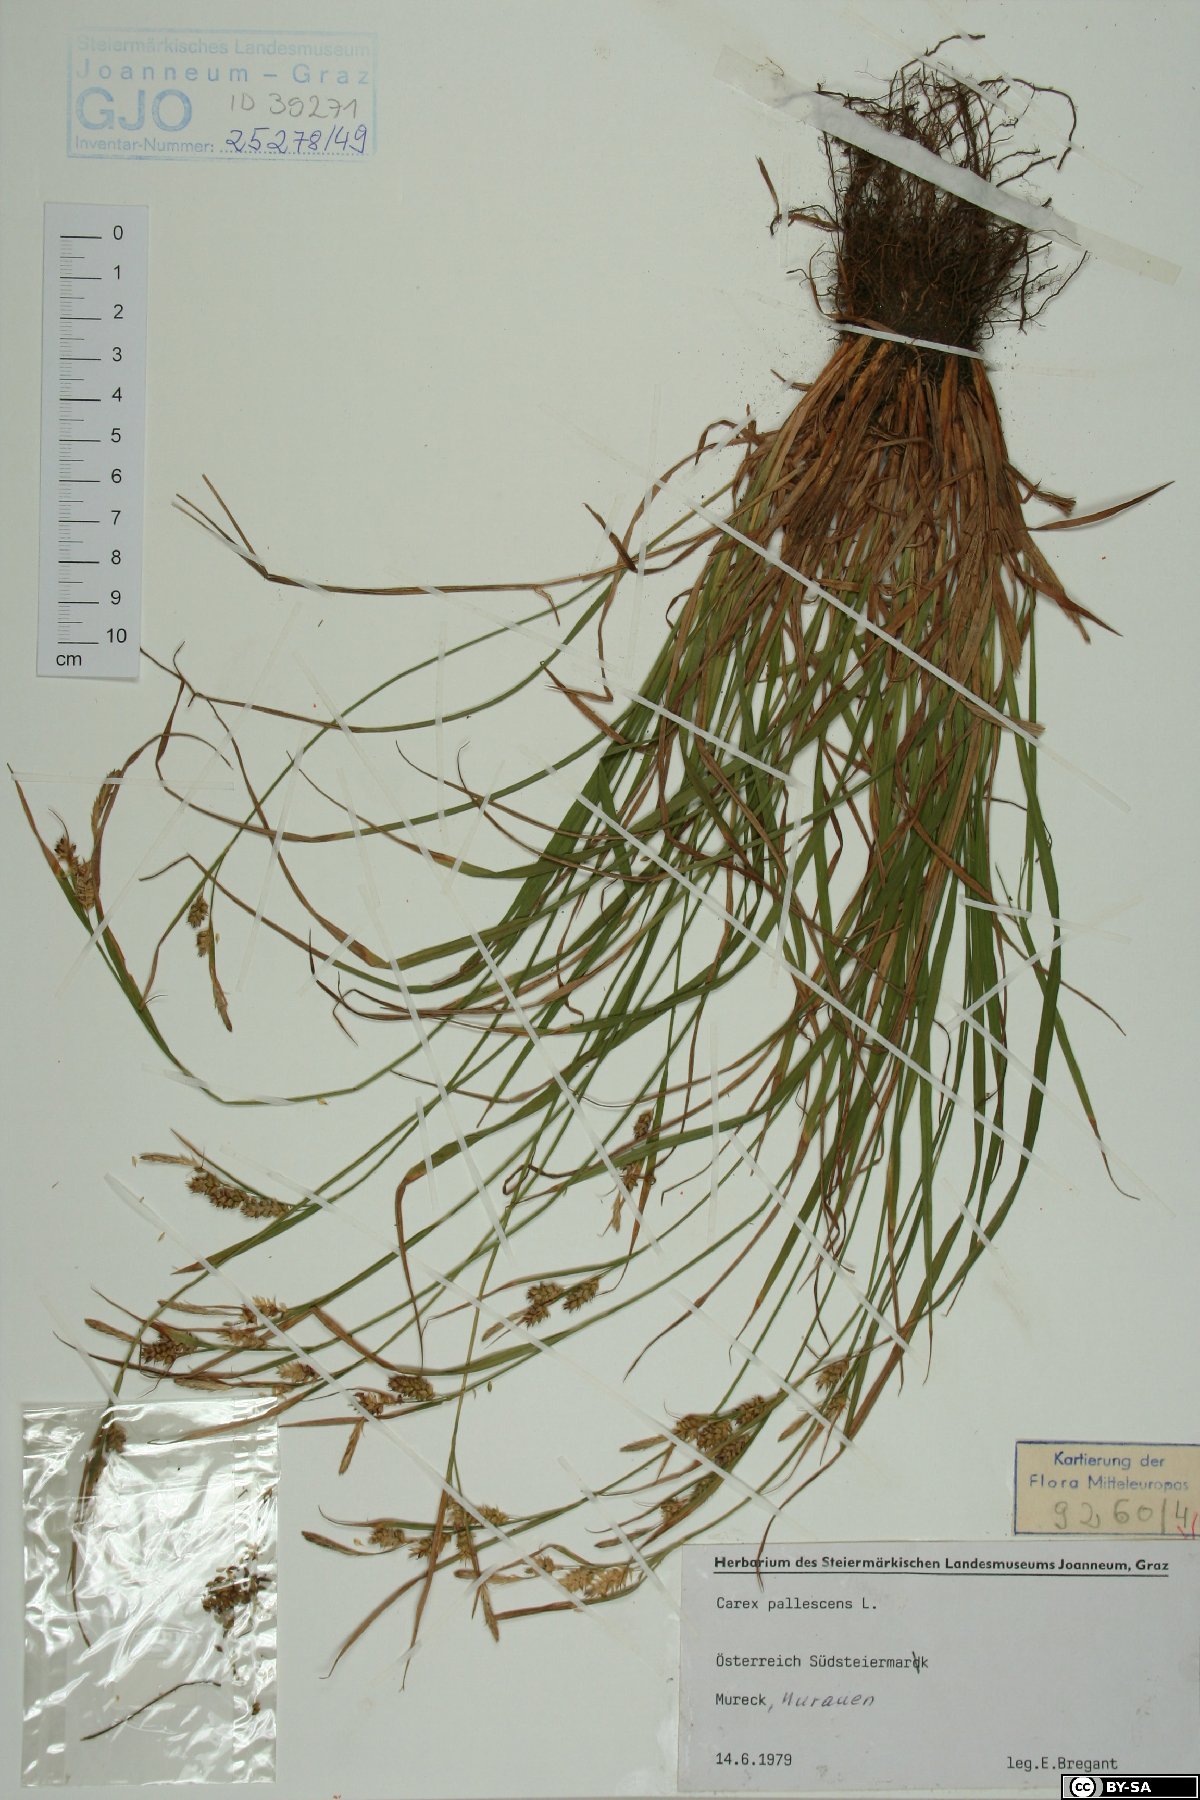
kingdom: Plantae
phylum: Tracheophyta
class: Liliopsida
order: Poales
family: Cyperaceae
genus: Carex
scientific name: Carex pallescens
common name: Pale sedge
